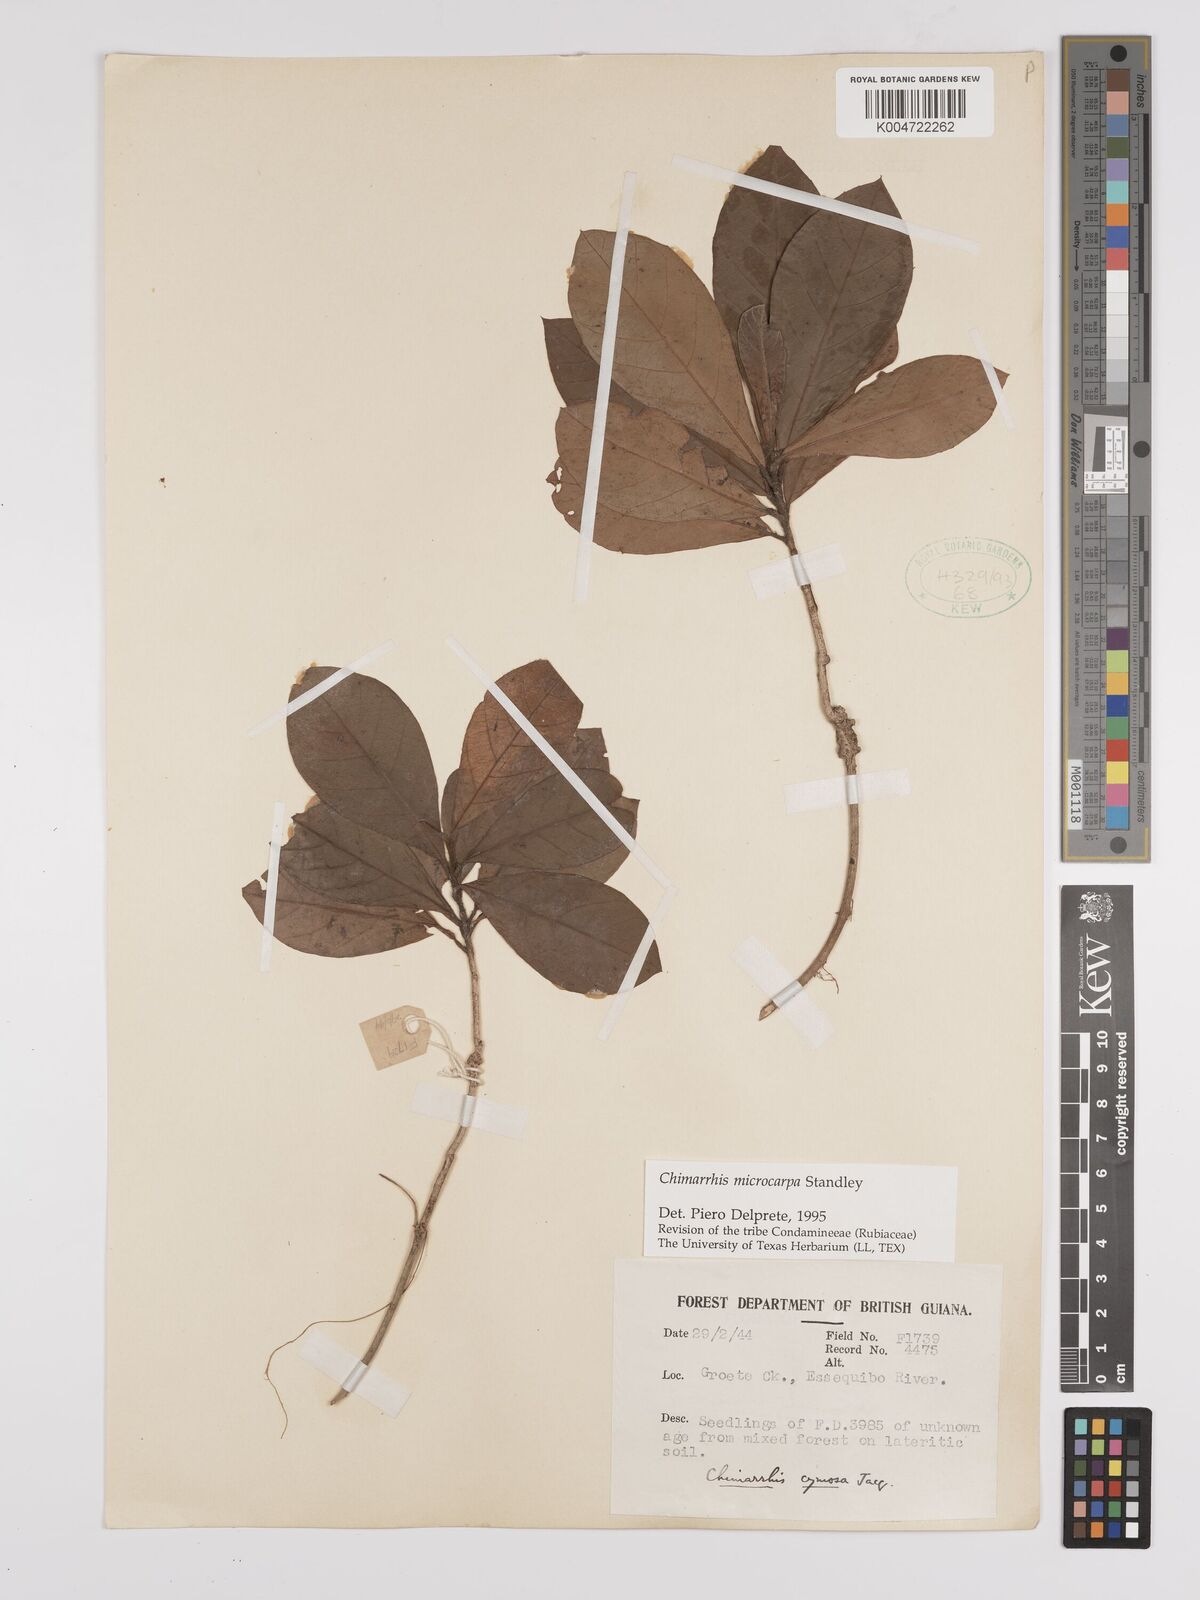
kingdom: Plantae
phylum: Tracheophyta
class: Magnoliopsida
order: Gentianales
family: Rubiaceae
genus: Chimarrhis
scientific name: Chimarrhis microcarpa
